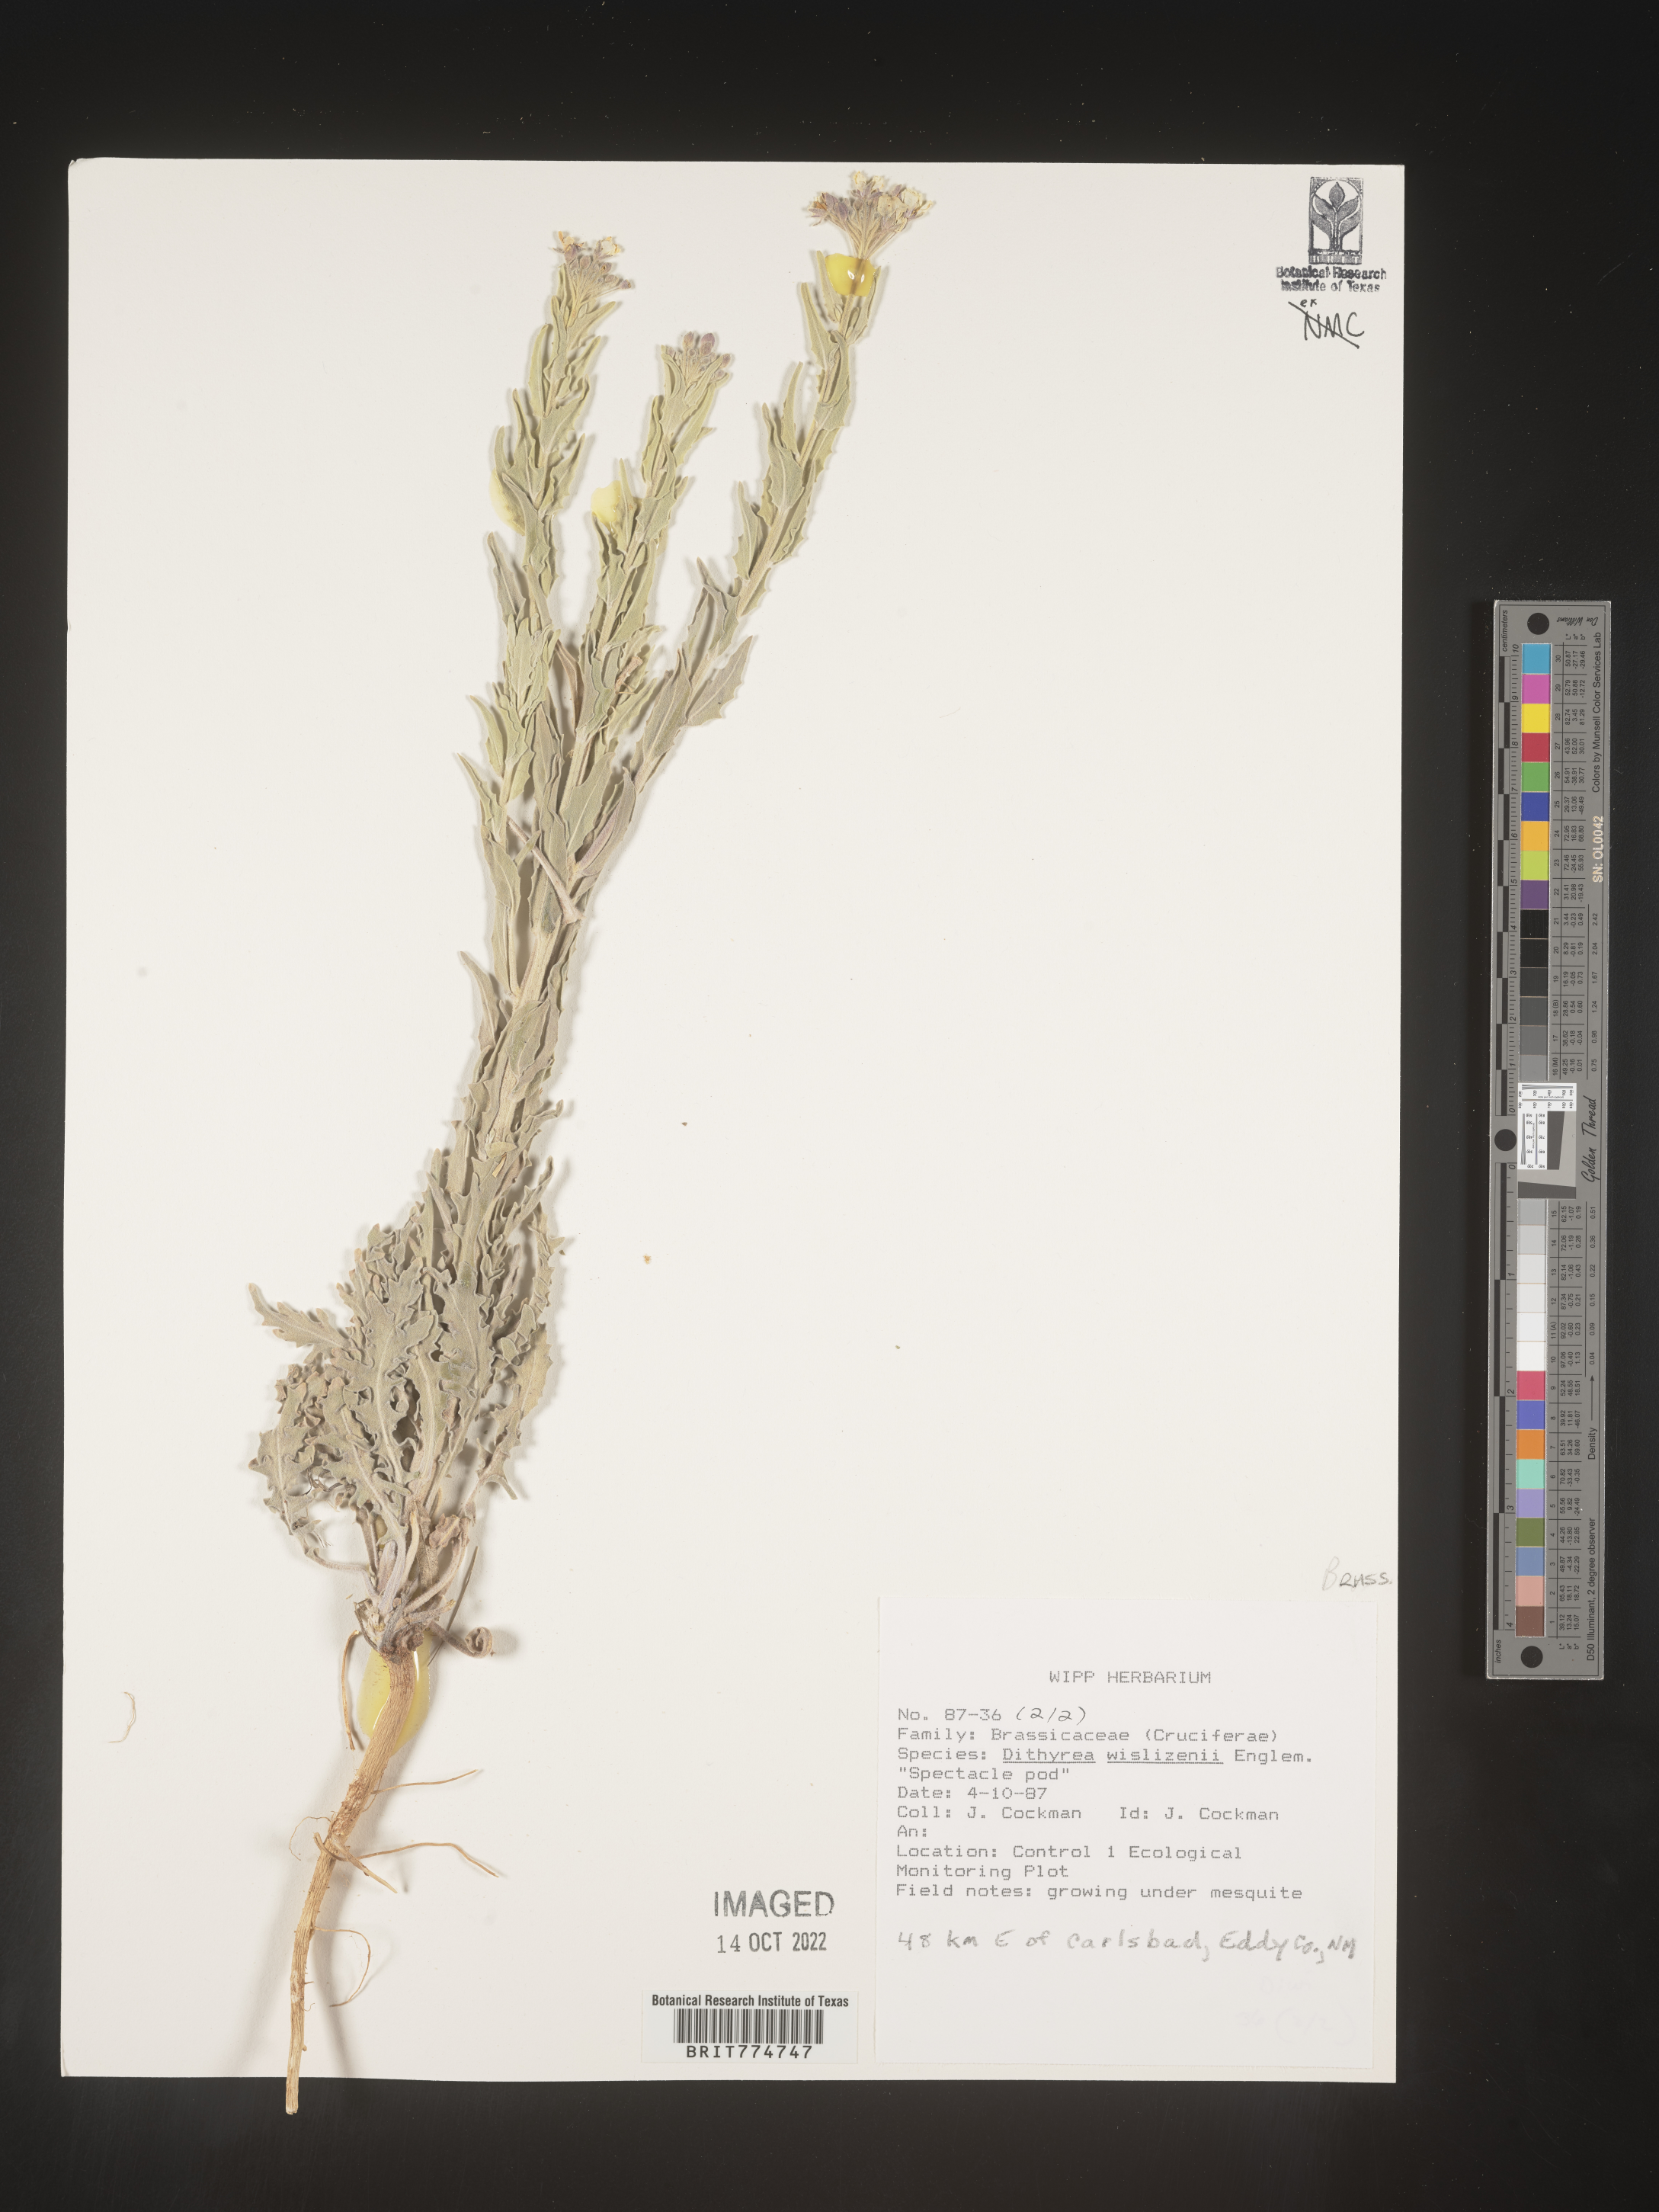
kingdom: Plantae
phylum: Tracheophyta
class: Magnoliopsida
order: Brassicales
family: Brassicaceae
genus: Dimorphocarpa
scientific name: Dimorphocarpa wislizenii
